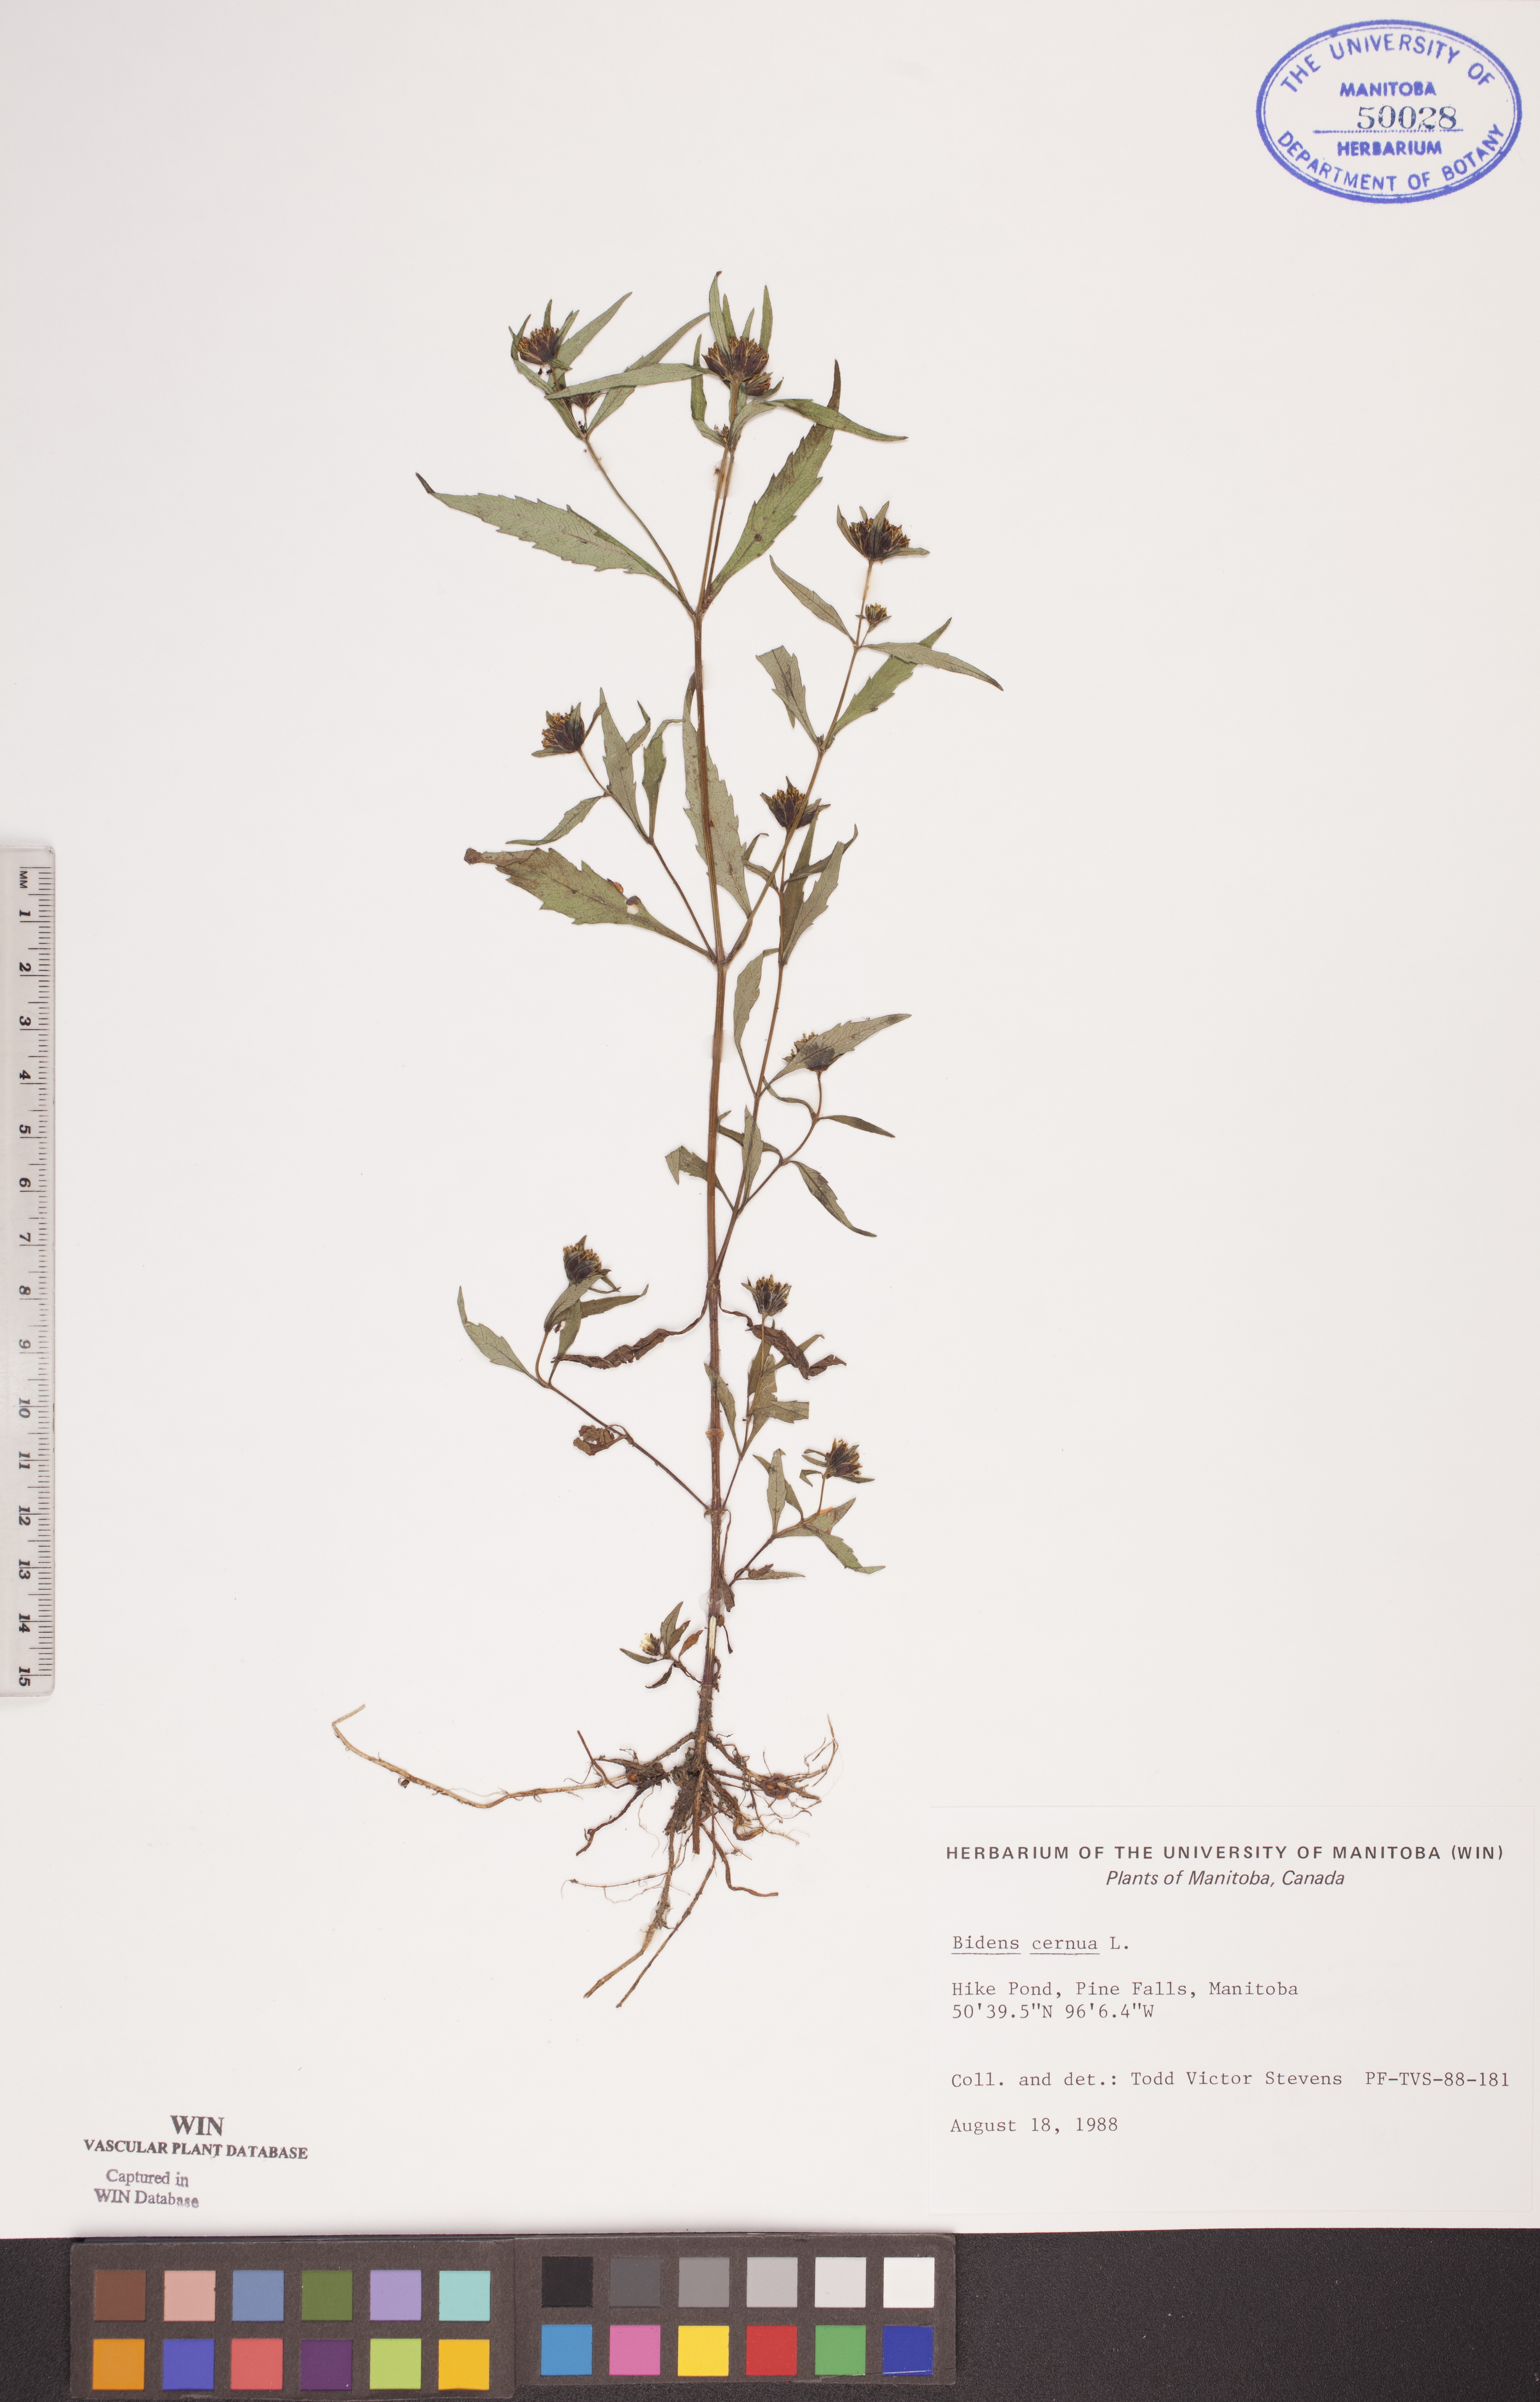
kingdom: Plantae
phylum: Tracheophyta
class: Magnoliopsida
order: Asterales
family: Asteraceae
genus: Bidens
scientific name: Bidens cernua
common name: Nodding bur-marigold
